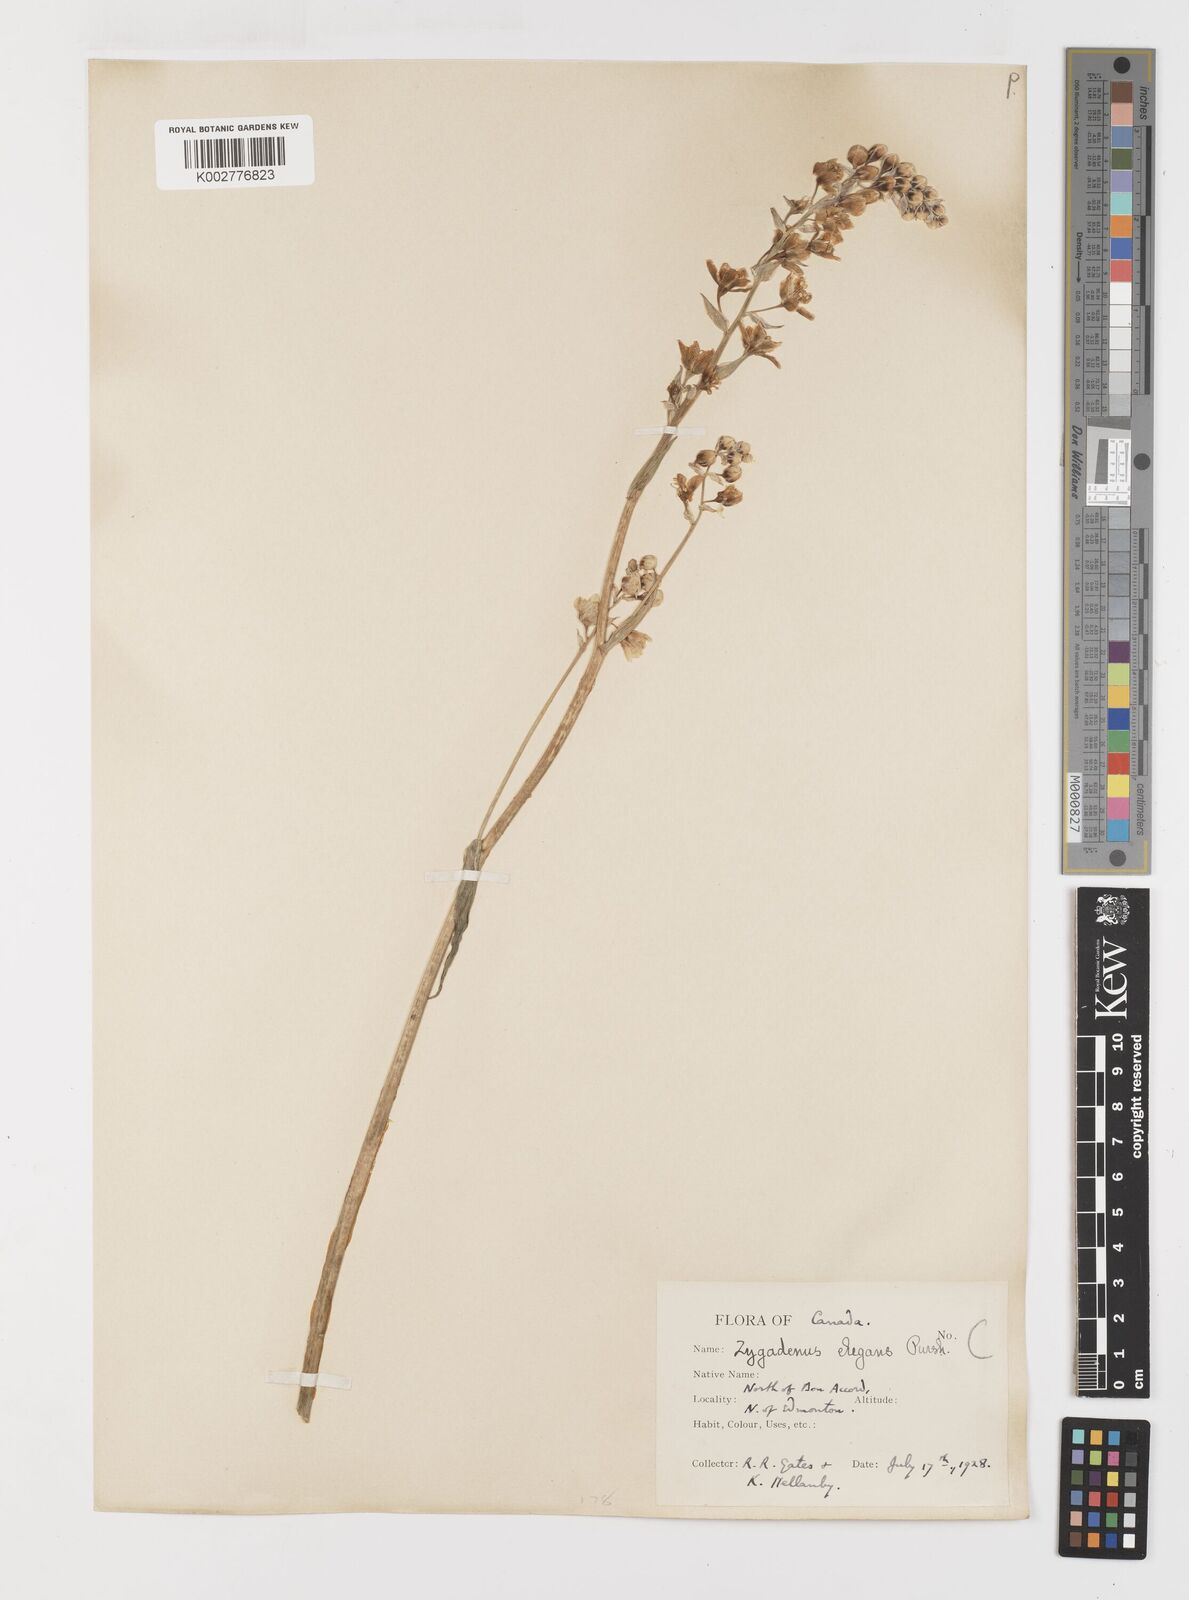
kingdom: Plantae
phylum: Tracheophyta
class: Liliopsida
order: Liliales
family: Melanthiaceae
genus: Anticlea
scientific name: Anticlea elegans
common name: Mountain death camas
